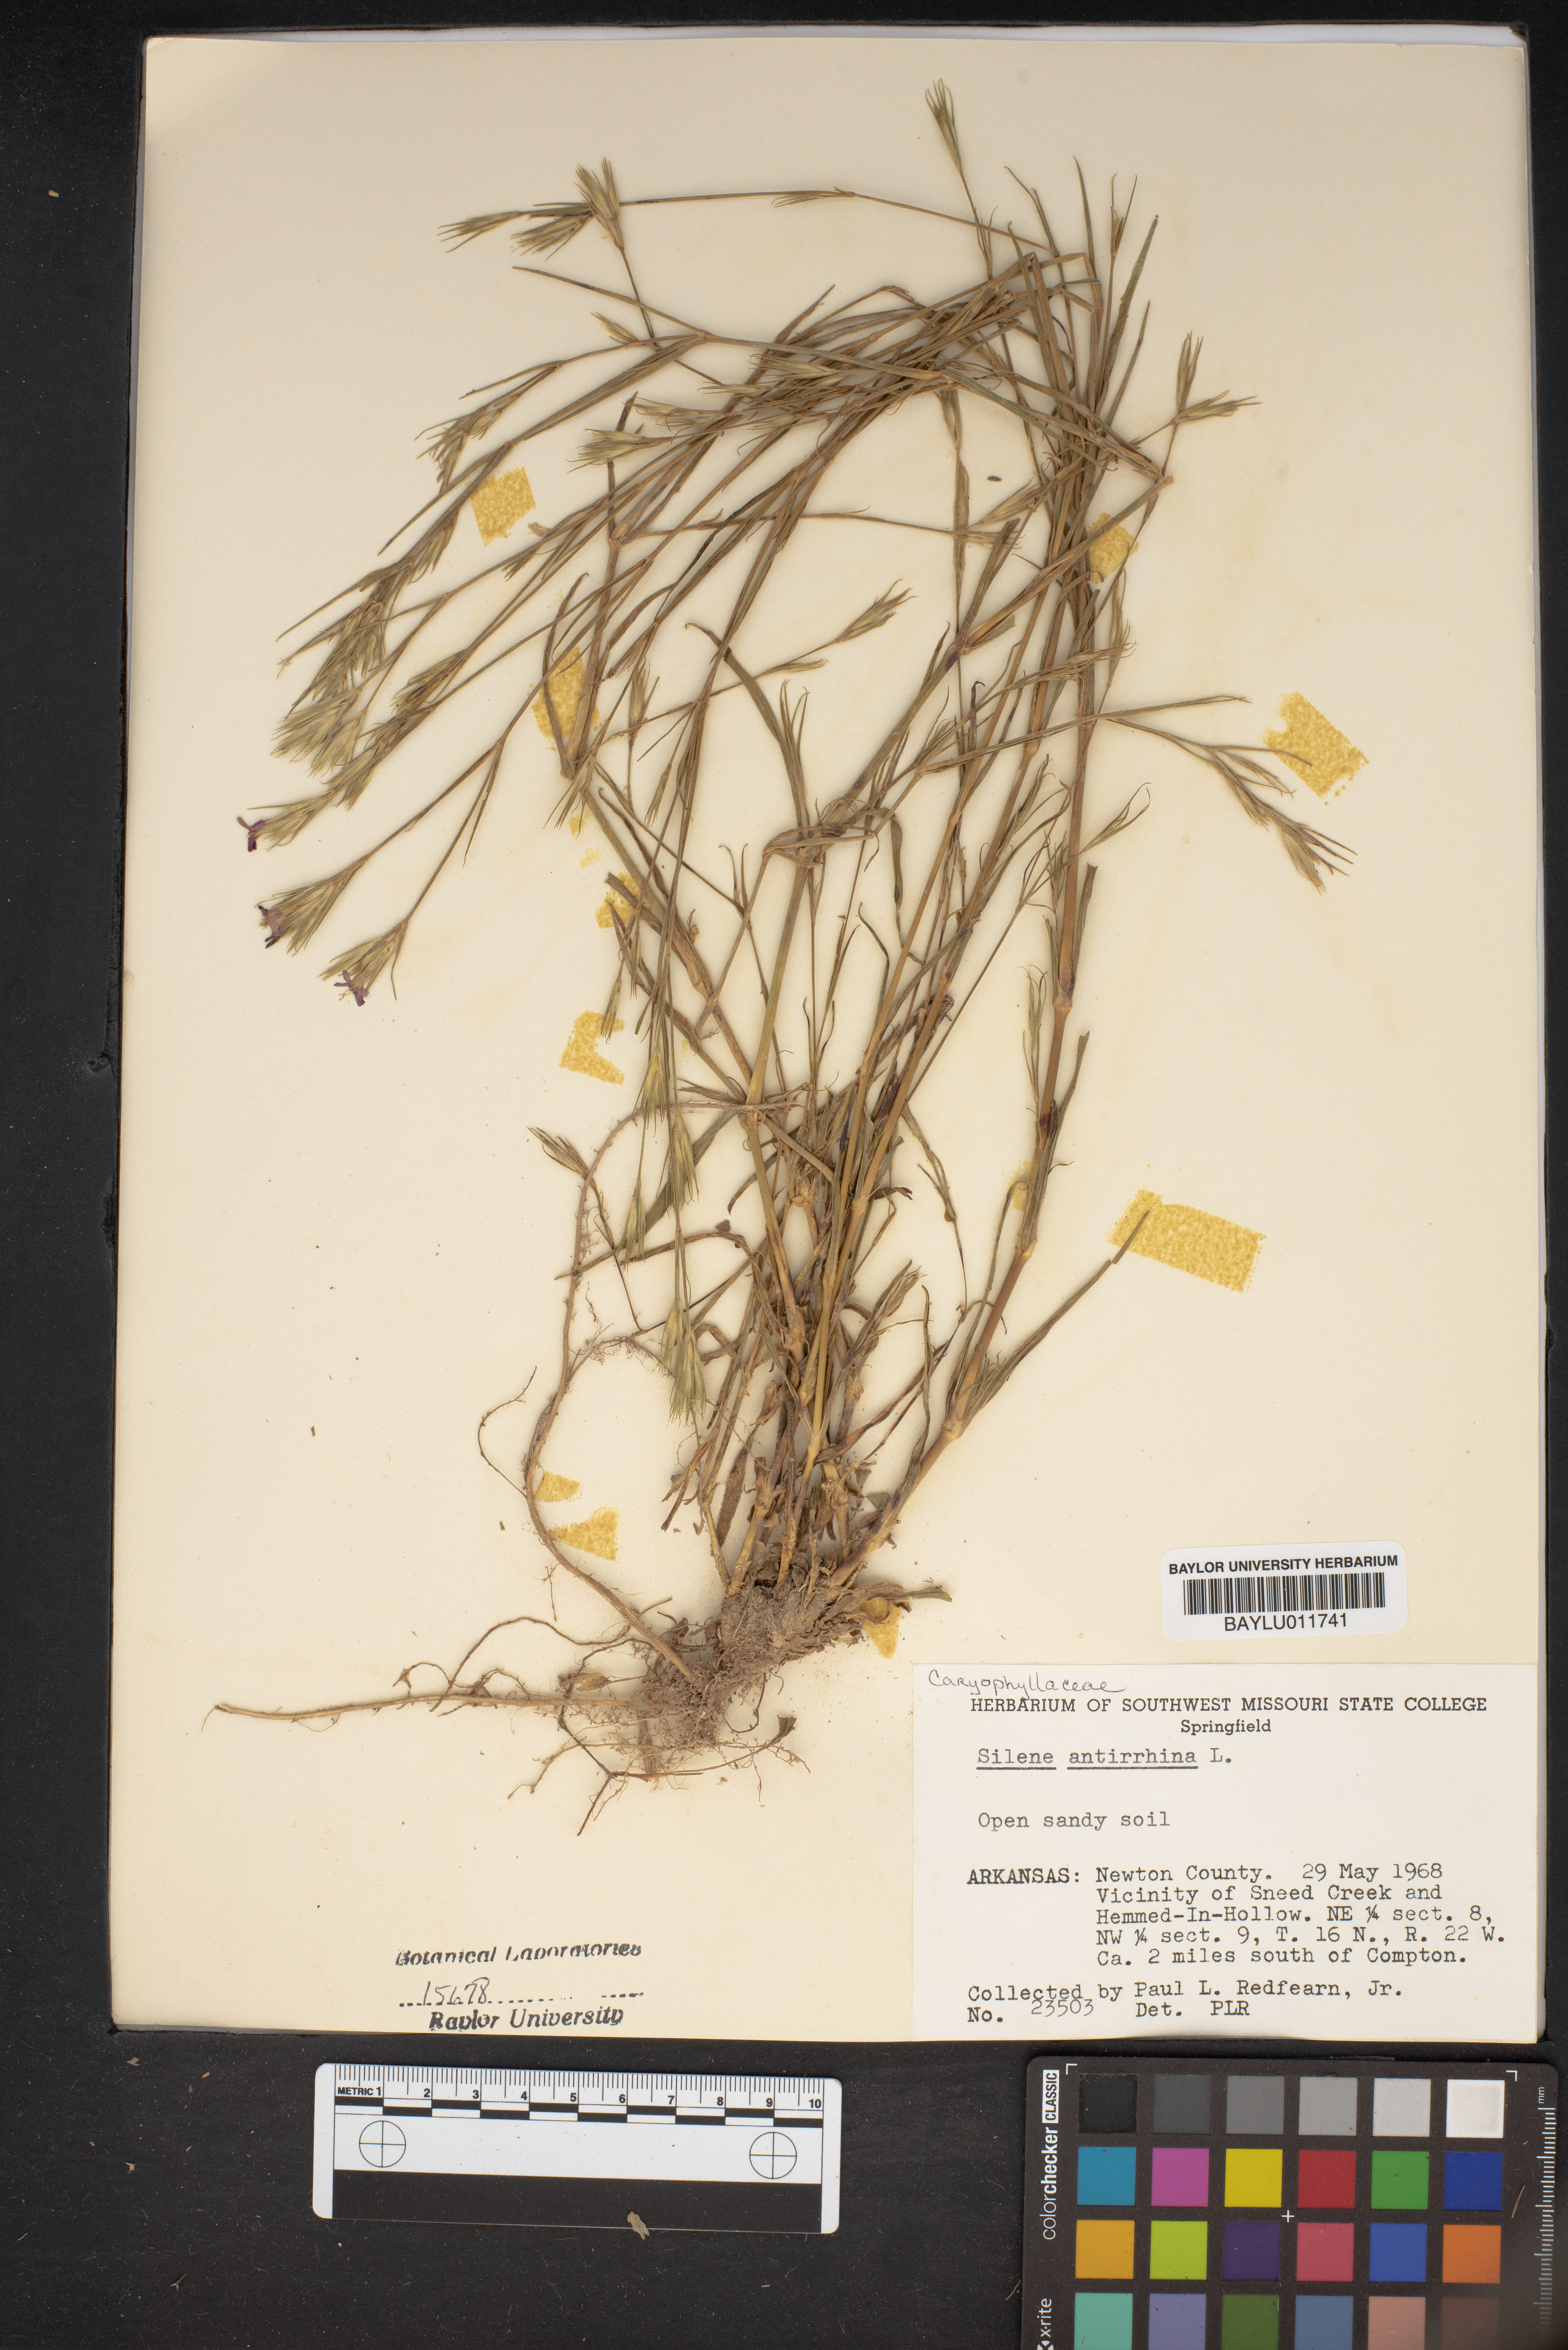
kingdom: Plantae
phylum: Tracheophyta
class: Magnoliopsida
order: Caryophyllales
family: Caryophyllaceae
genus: Silene
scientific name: Silene antirrhina
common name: Sleepy catchfly
